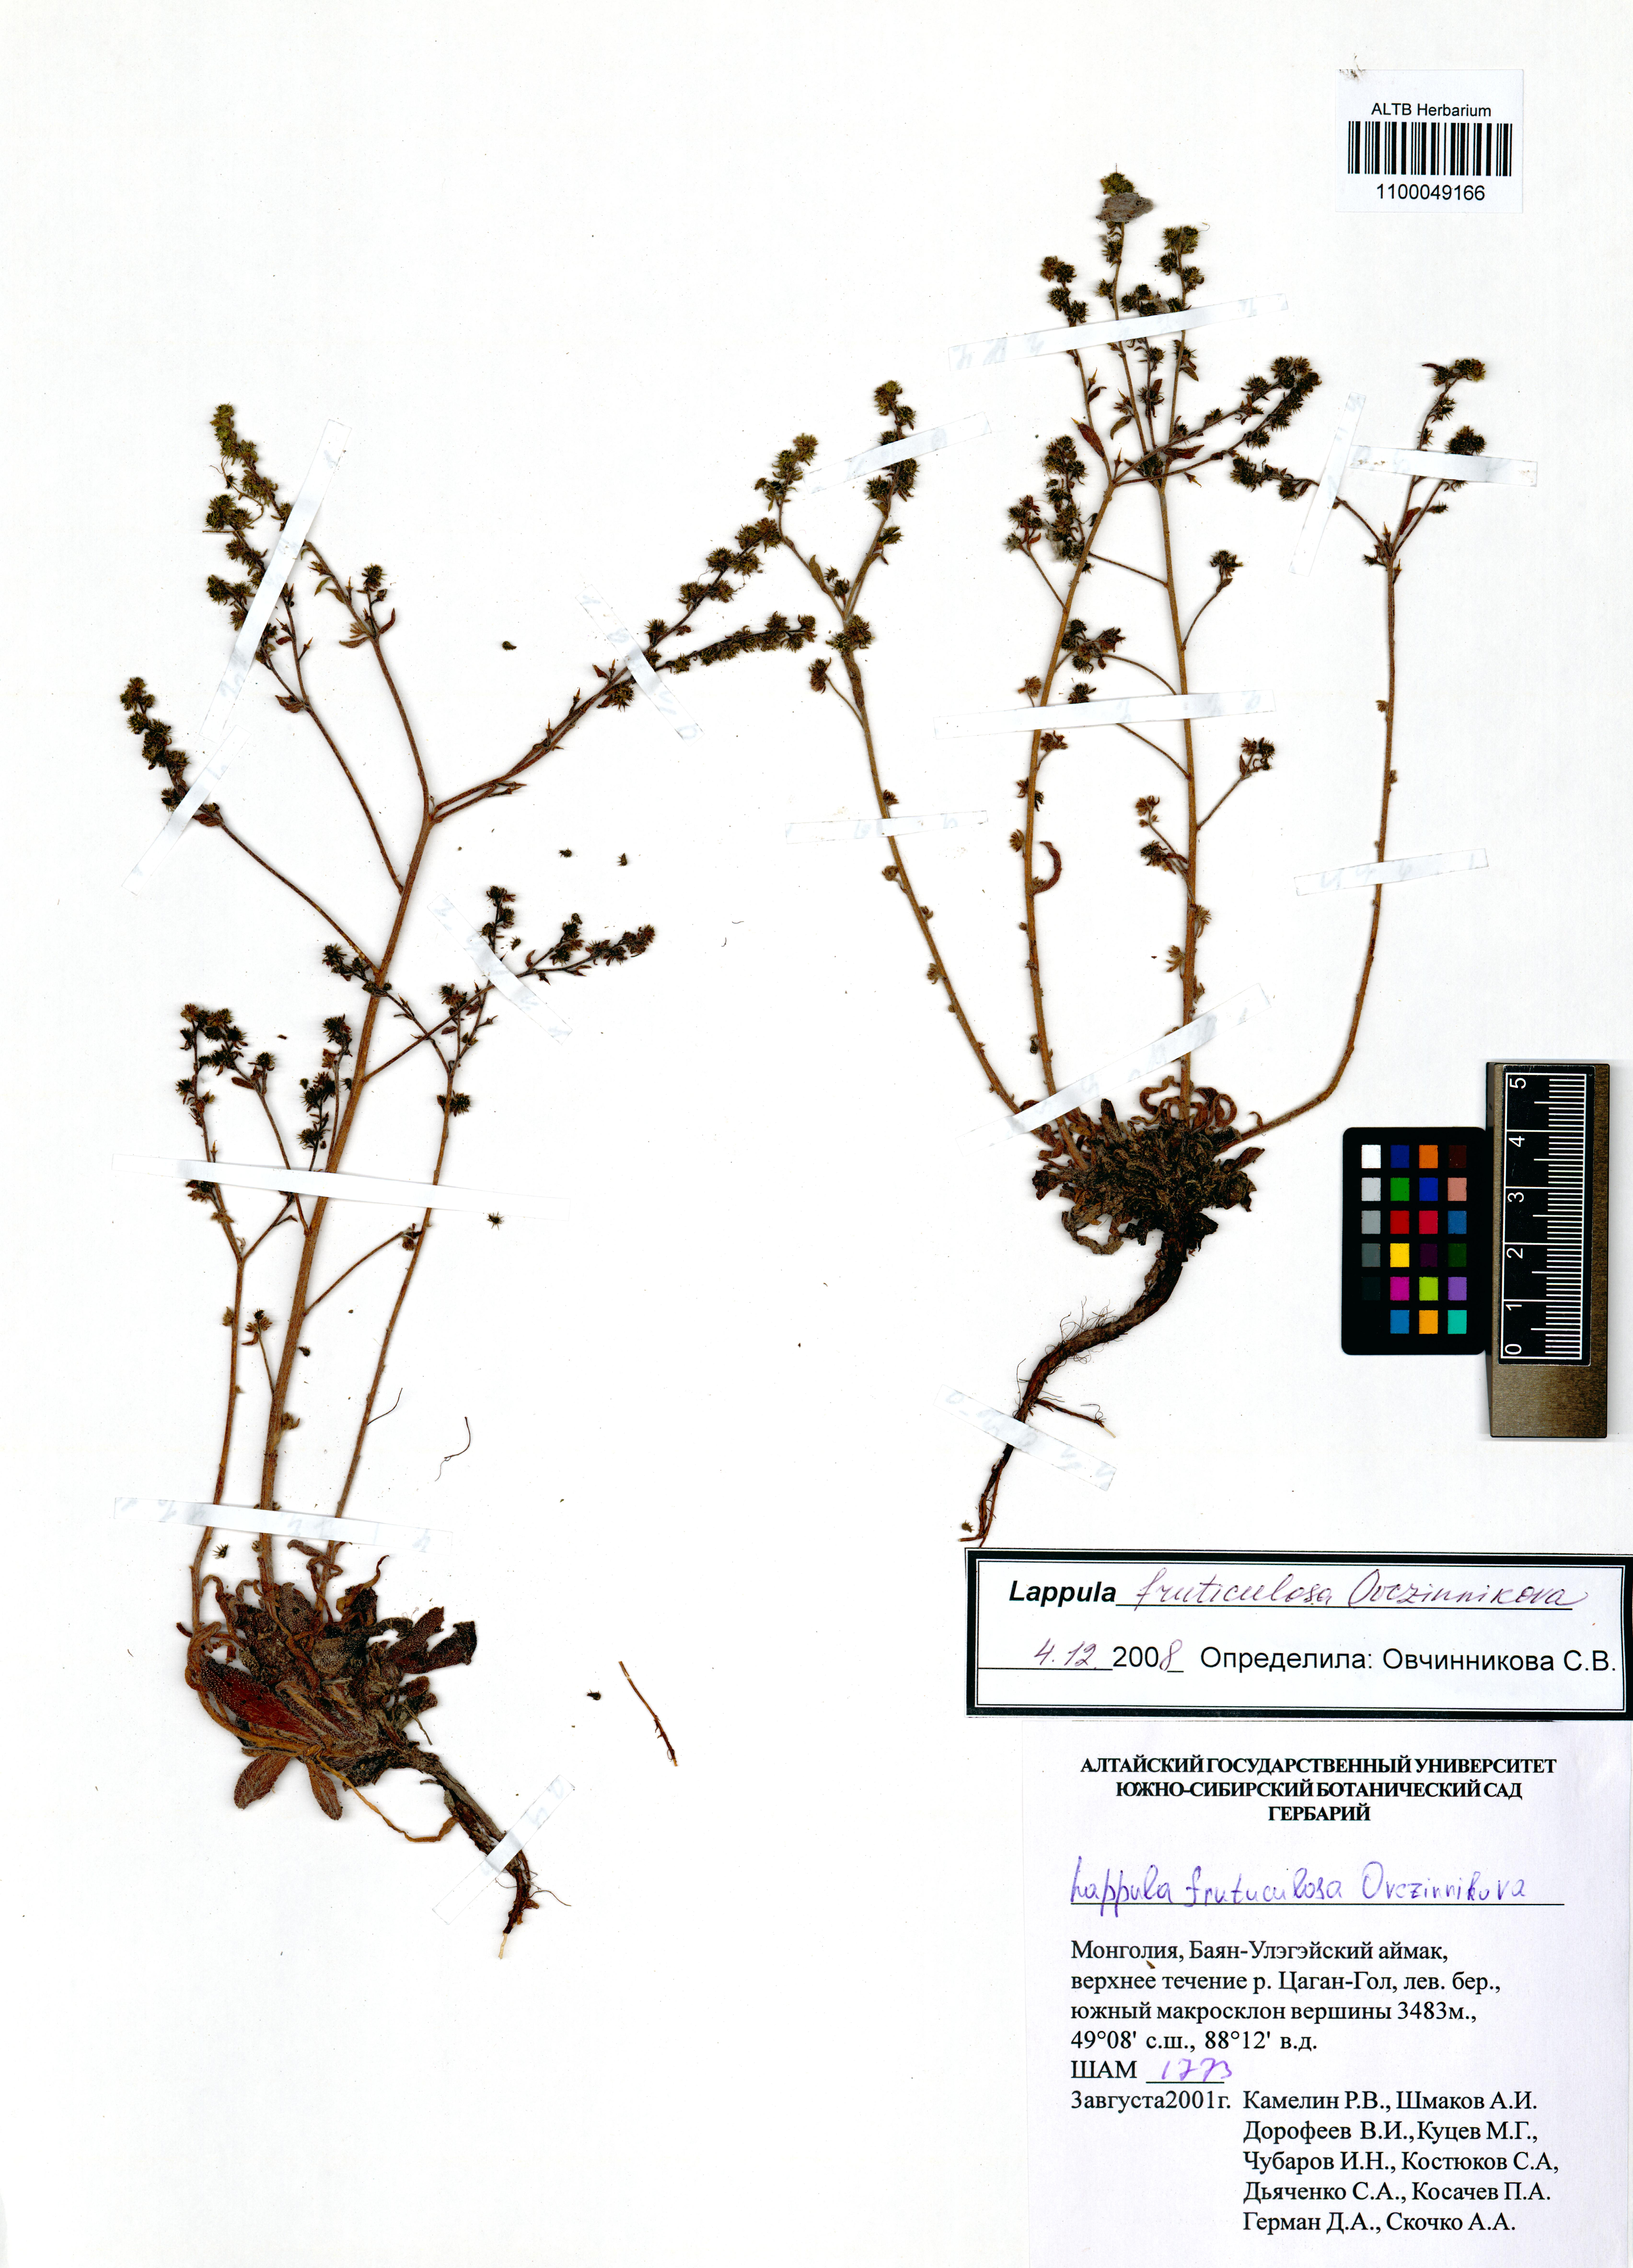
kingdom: Plantae
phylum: Tracheophyta
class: Magnoliopsida
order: Boraginales
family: Boraginaceae
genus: Lappula
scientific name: Lappula fruticulosa
